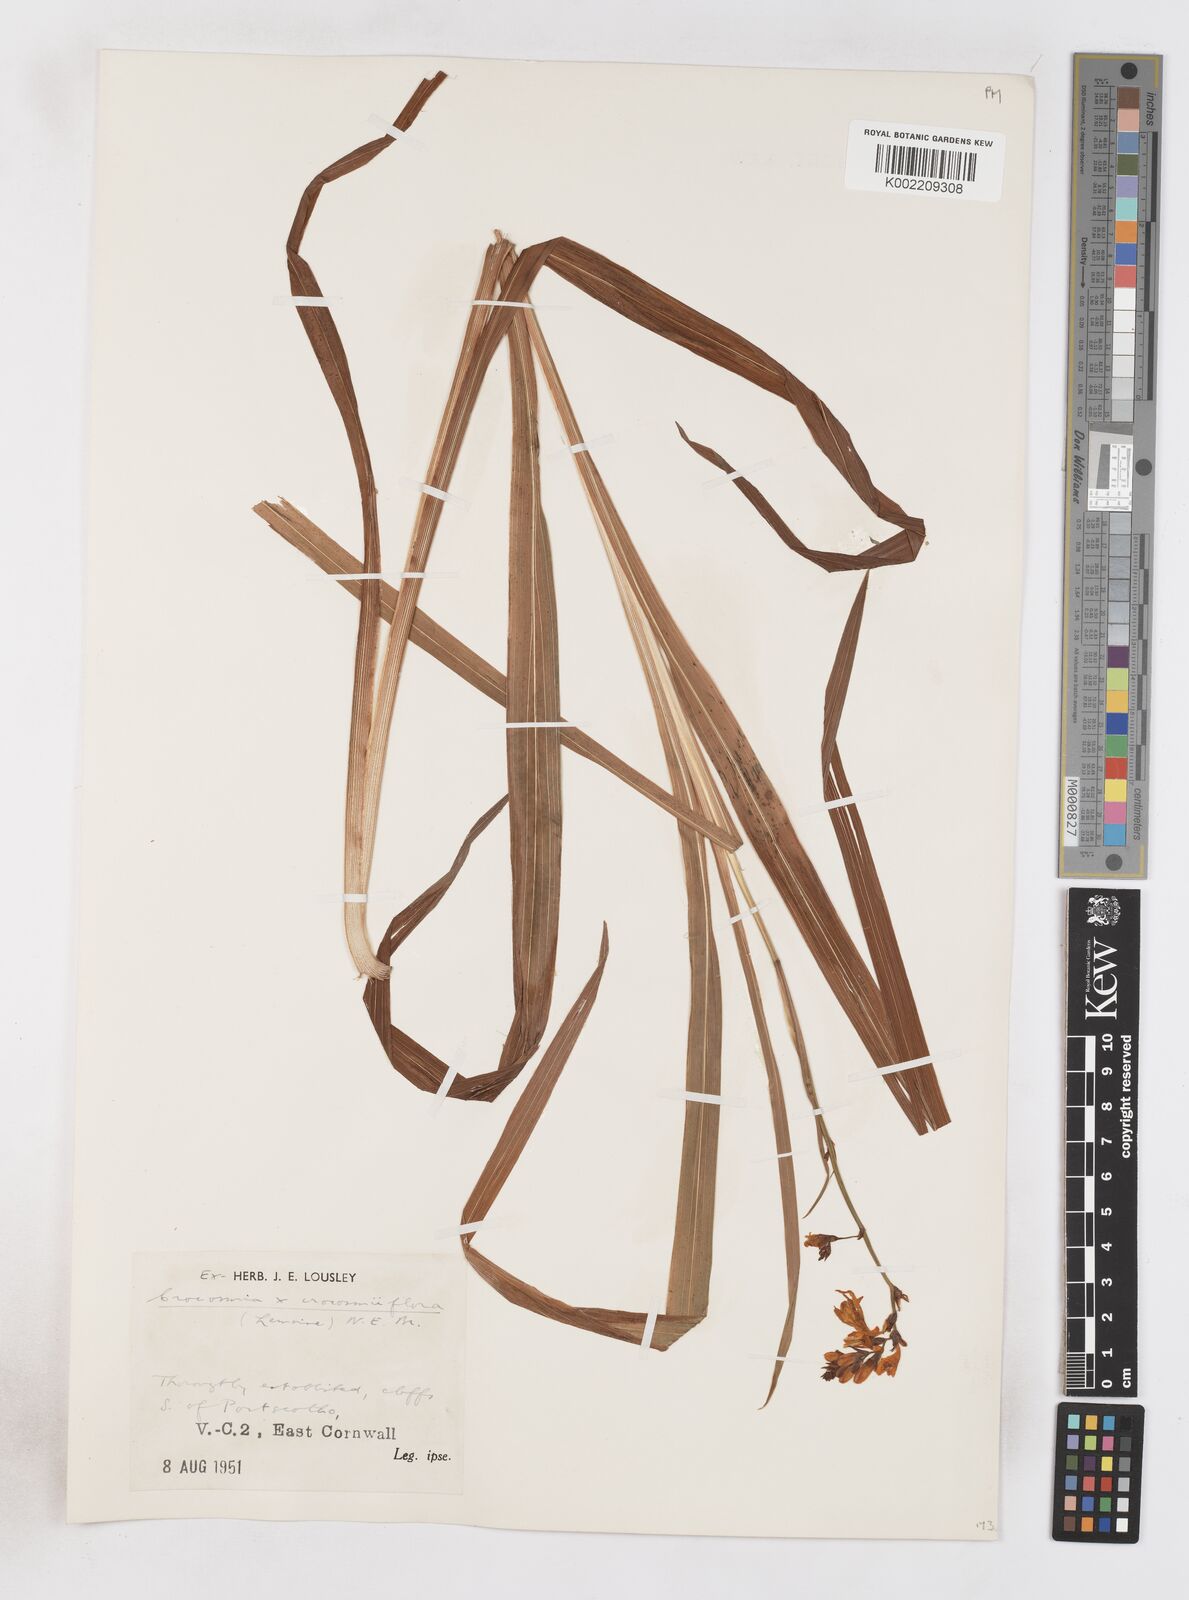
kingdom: Plantae
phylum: Tracheophyta
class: Liliopsida
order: Asparagales
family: Iridaceae
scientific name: Iridaceae
